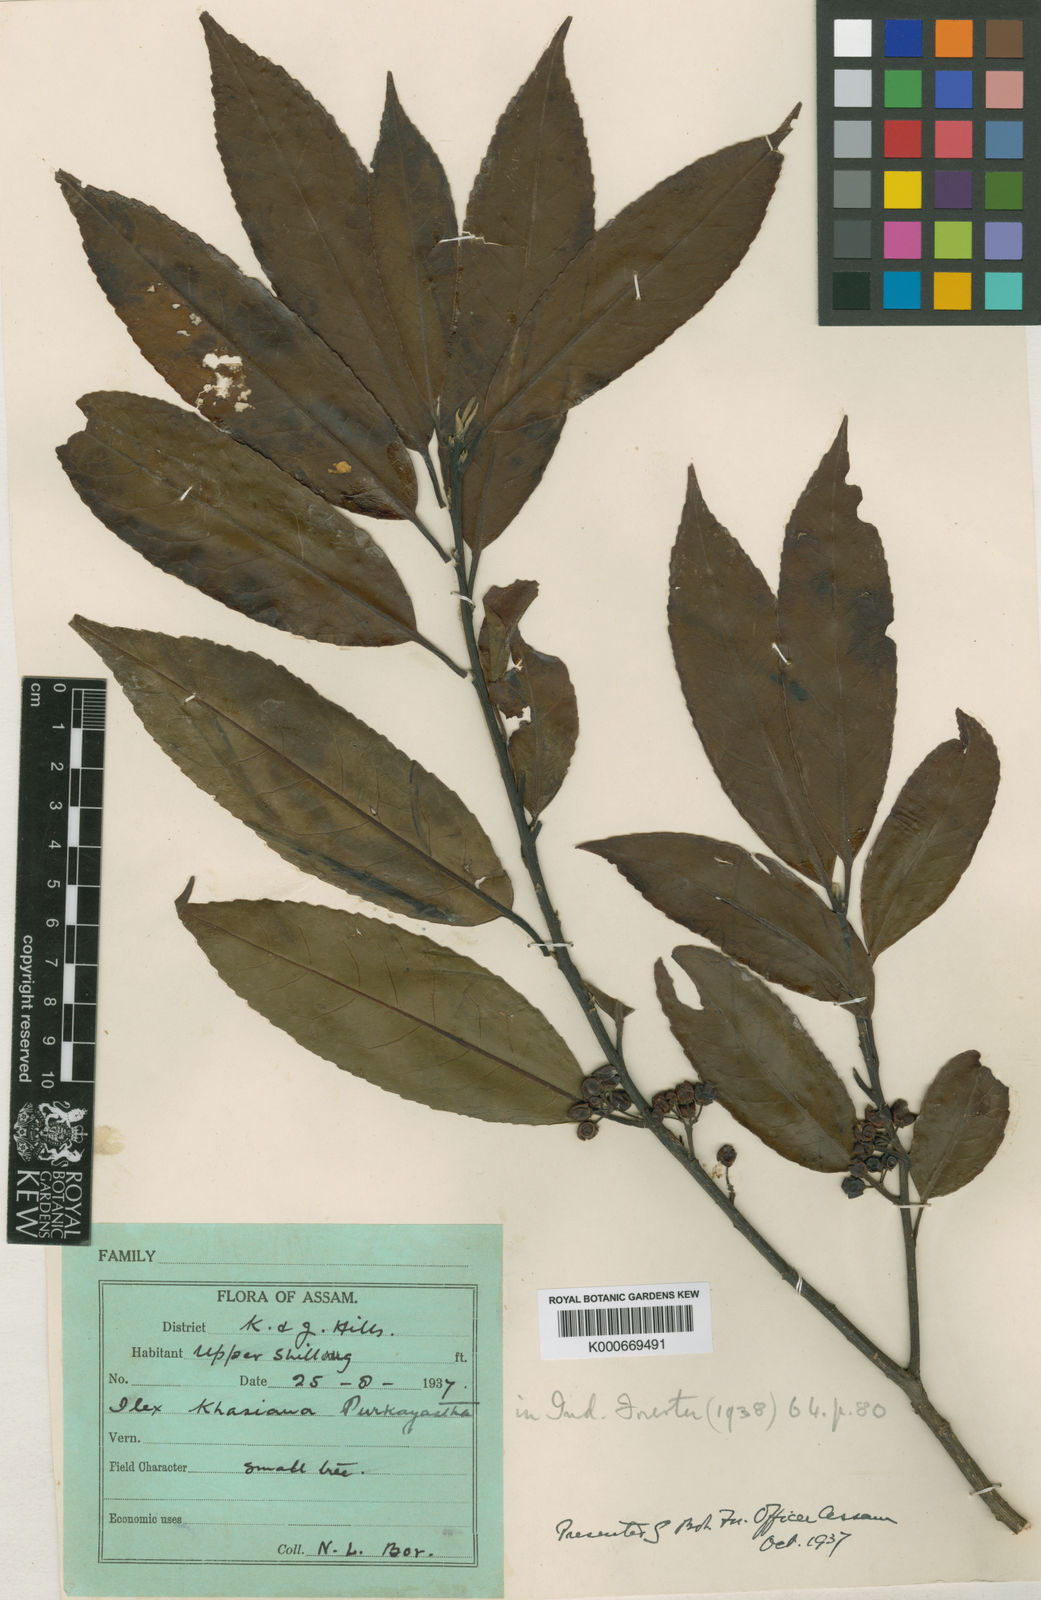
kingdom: Plantae
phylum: Tracheophyta
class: Magnoliopsida
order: Aquifoliales
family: Aquifoliaceae
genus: Ilex
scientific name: Ilex khasiana
